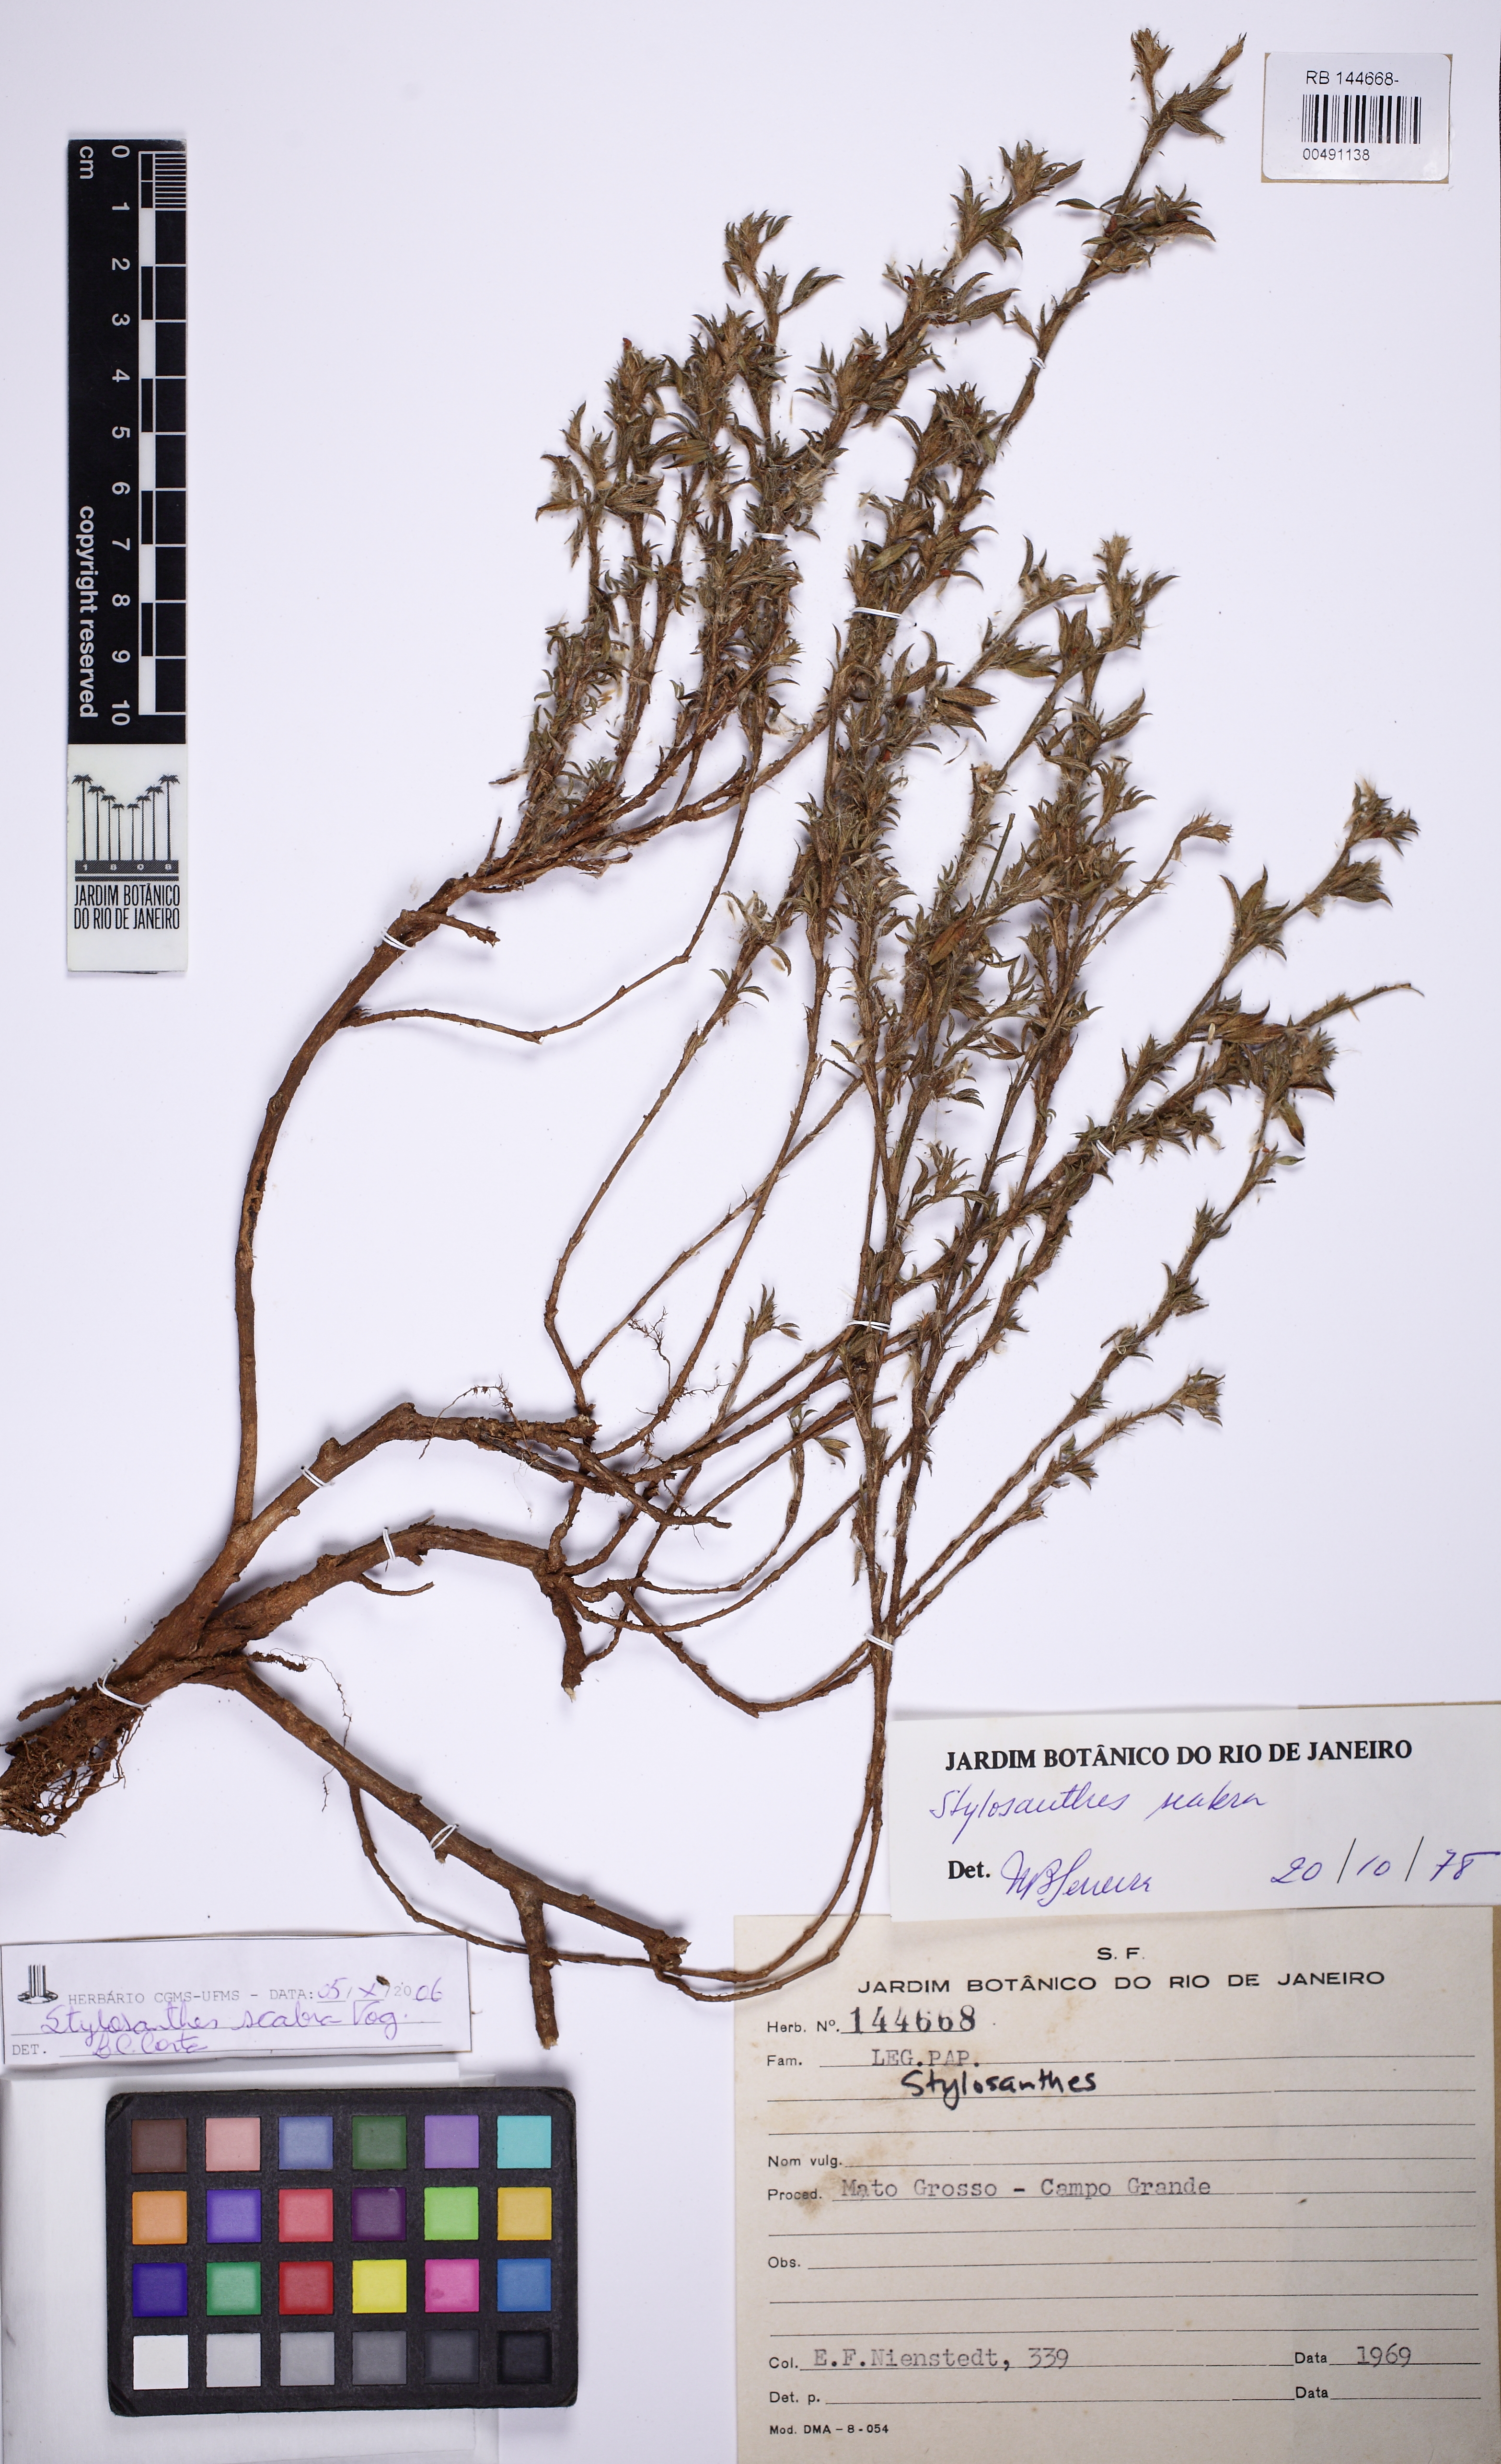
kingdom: Plantae
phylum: Tracheophyta
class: Magnoliopsida
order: Fabales
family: Fabaceae
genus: Stylosanthes
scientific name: Stylosanthes scabra
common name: Pencilflower
